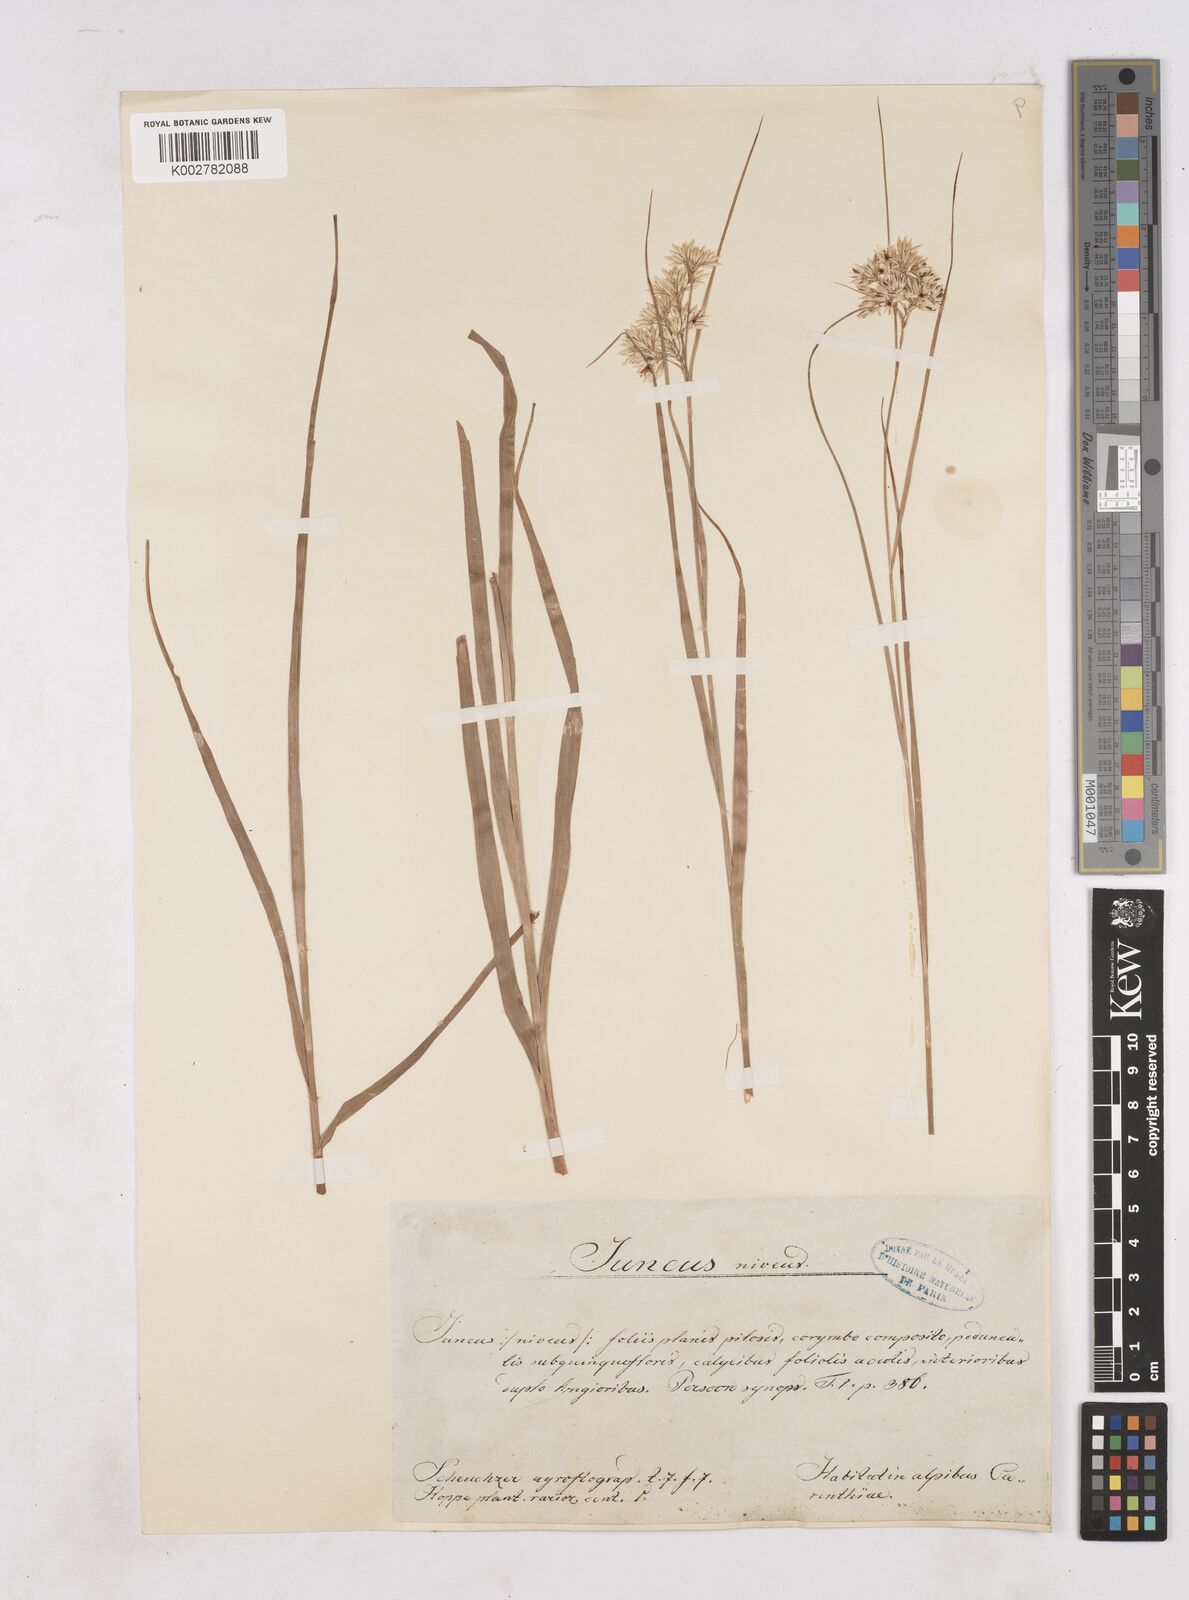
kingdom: Plantae
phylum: Tracheophyta
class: Liliopsida
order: Poales
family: Juncaceae
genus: Luzula
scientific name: Luzula nivea
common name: Snow-white wood-rush
